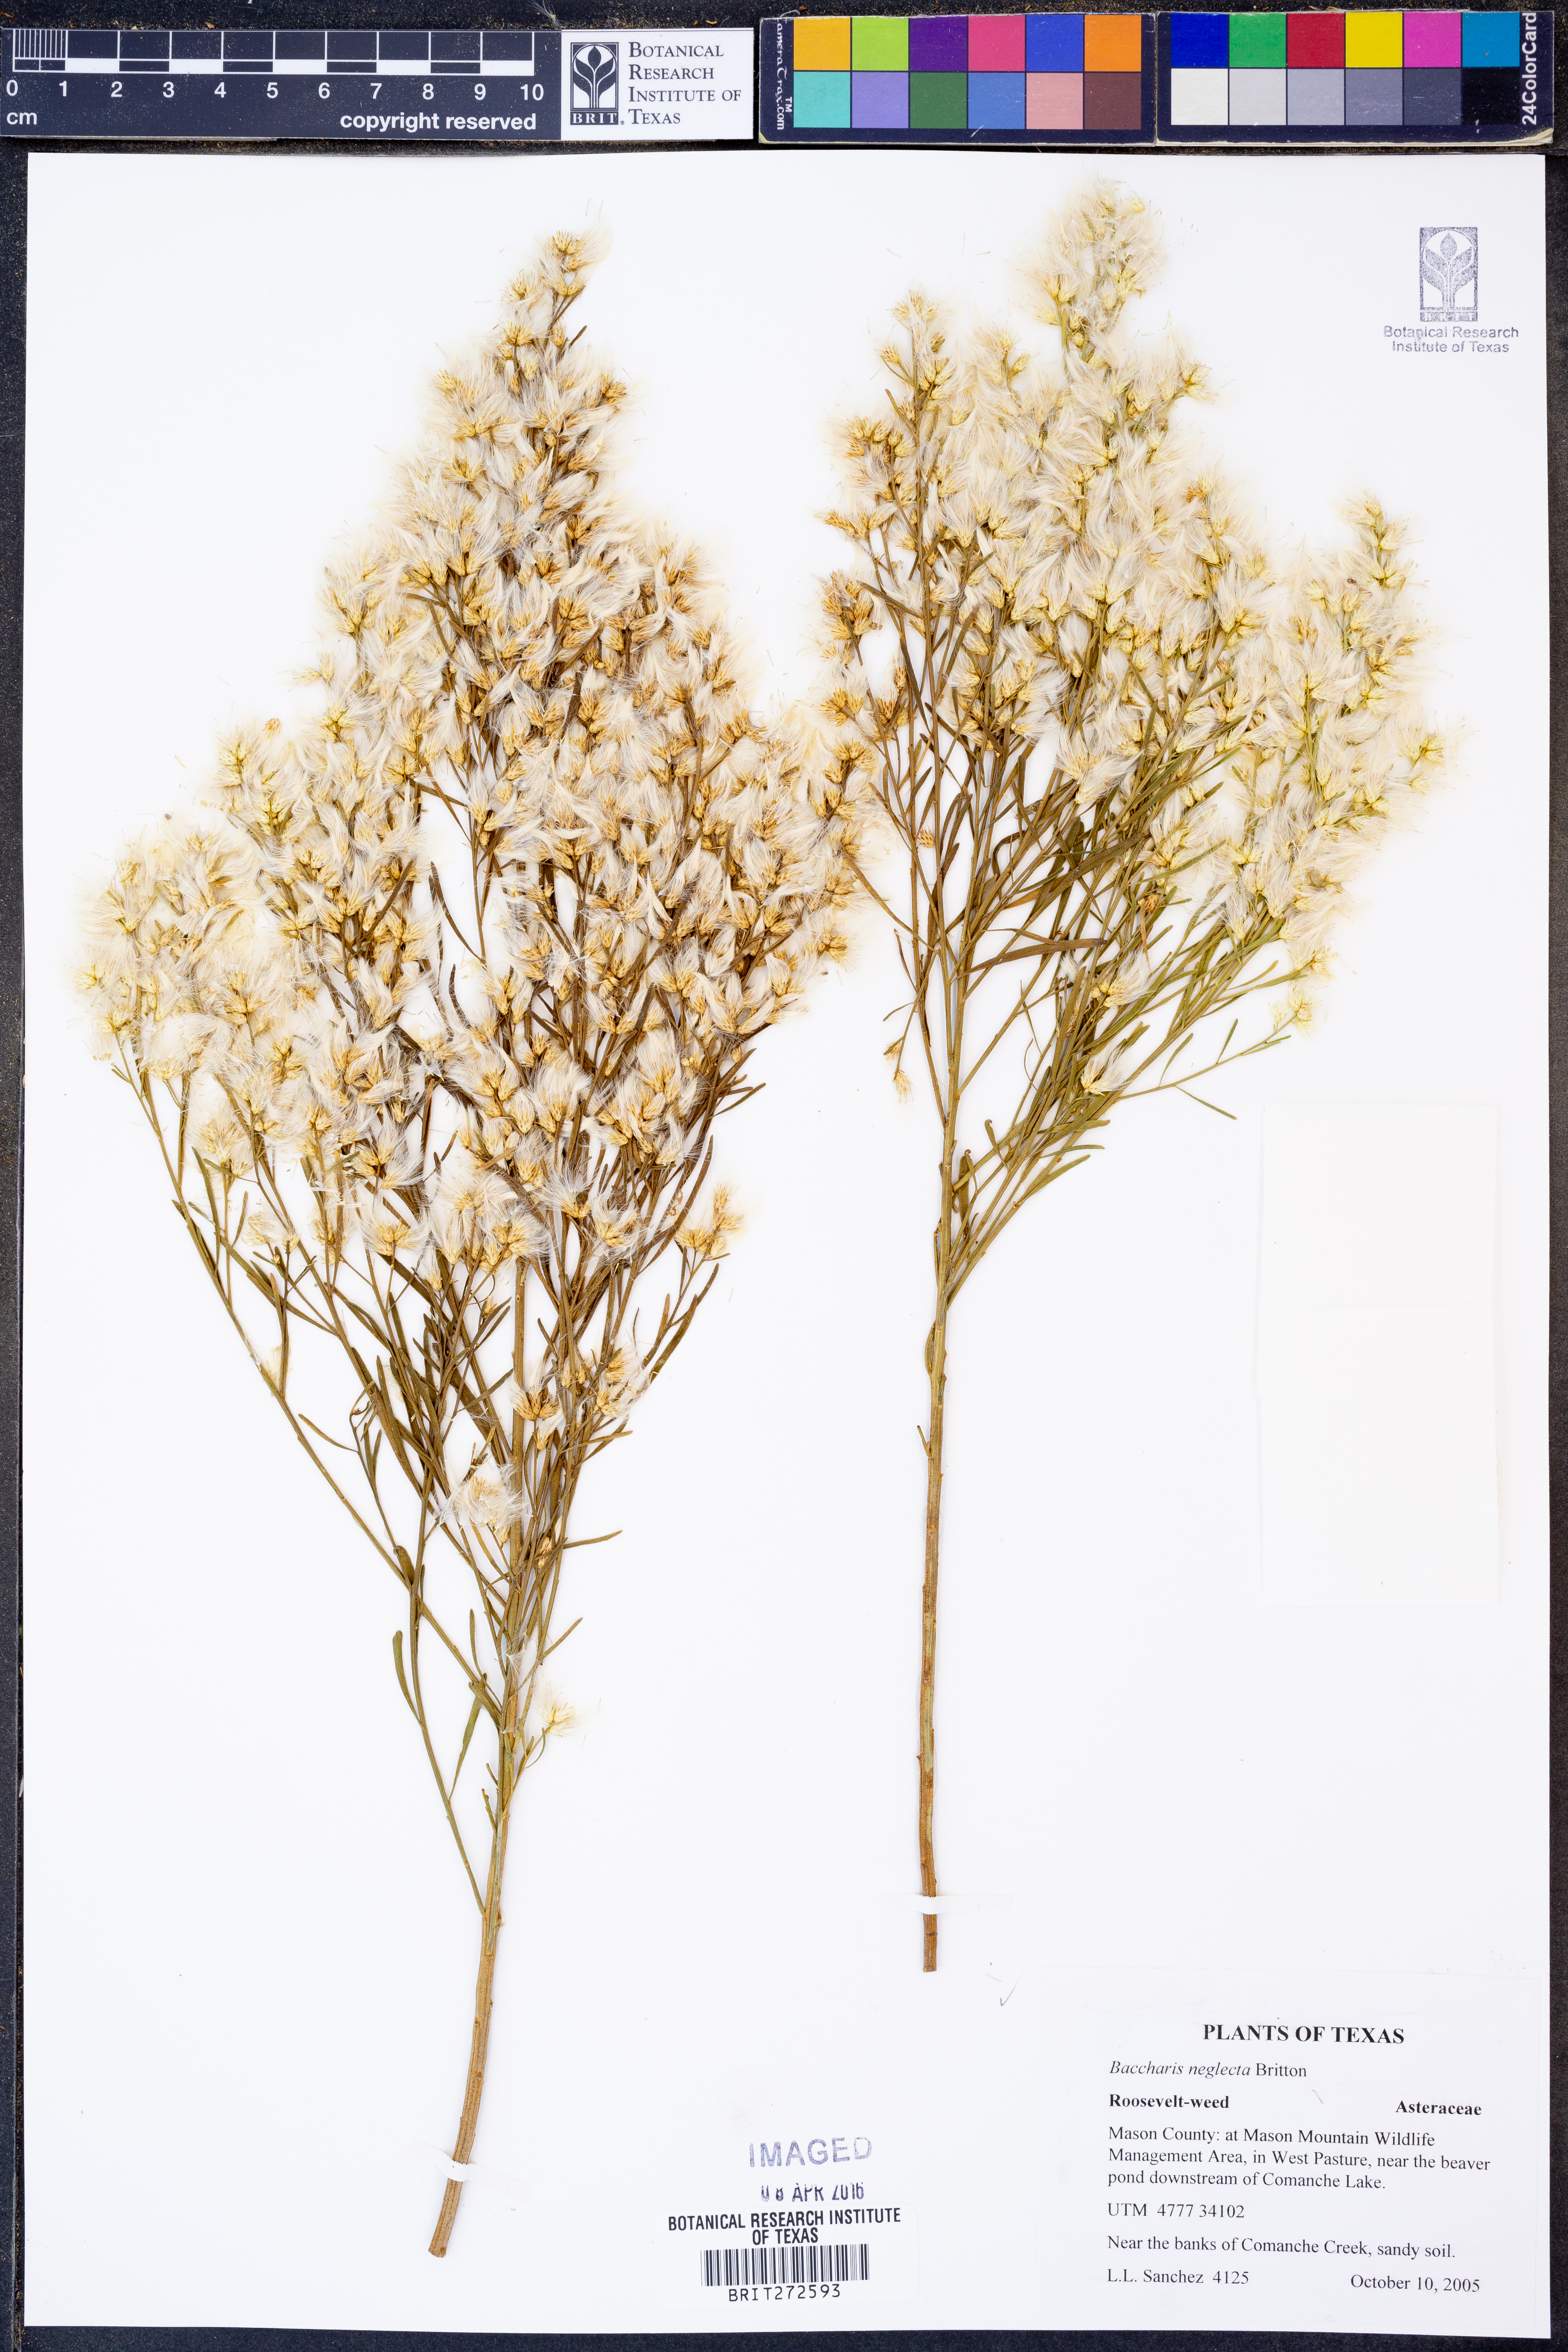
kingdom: Plantae
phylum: Tracheophyta
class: Magnoliopsida
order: Asterales
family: Asteraceae
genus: Baccharis
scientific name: Baccharis neglecta
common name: Roosevelt-weed
